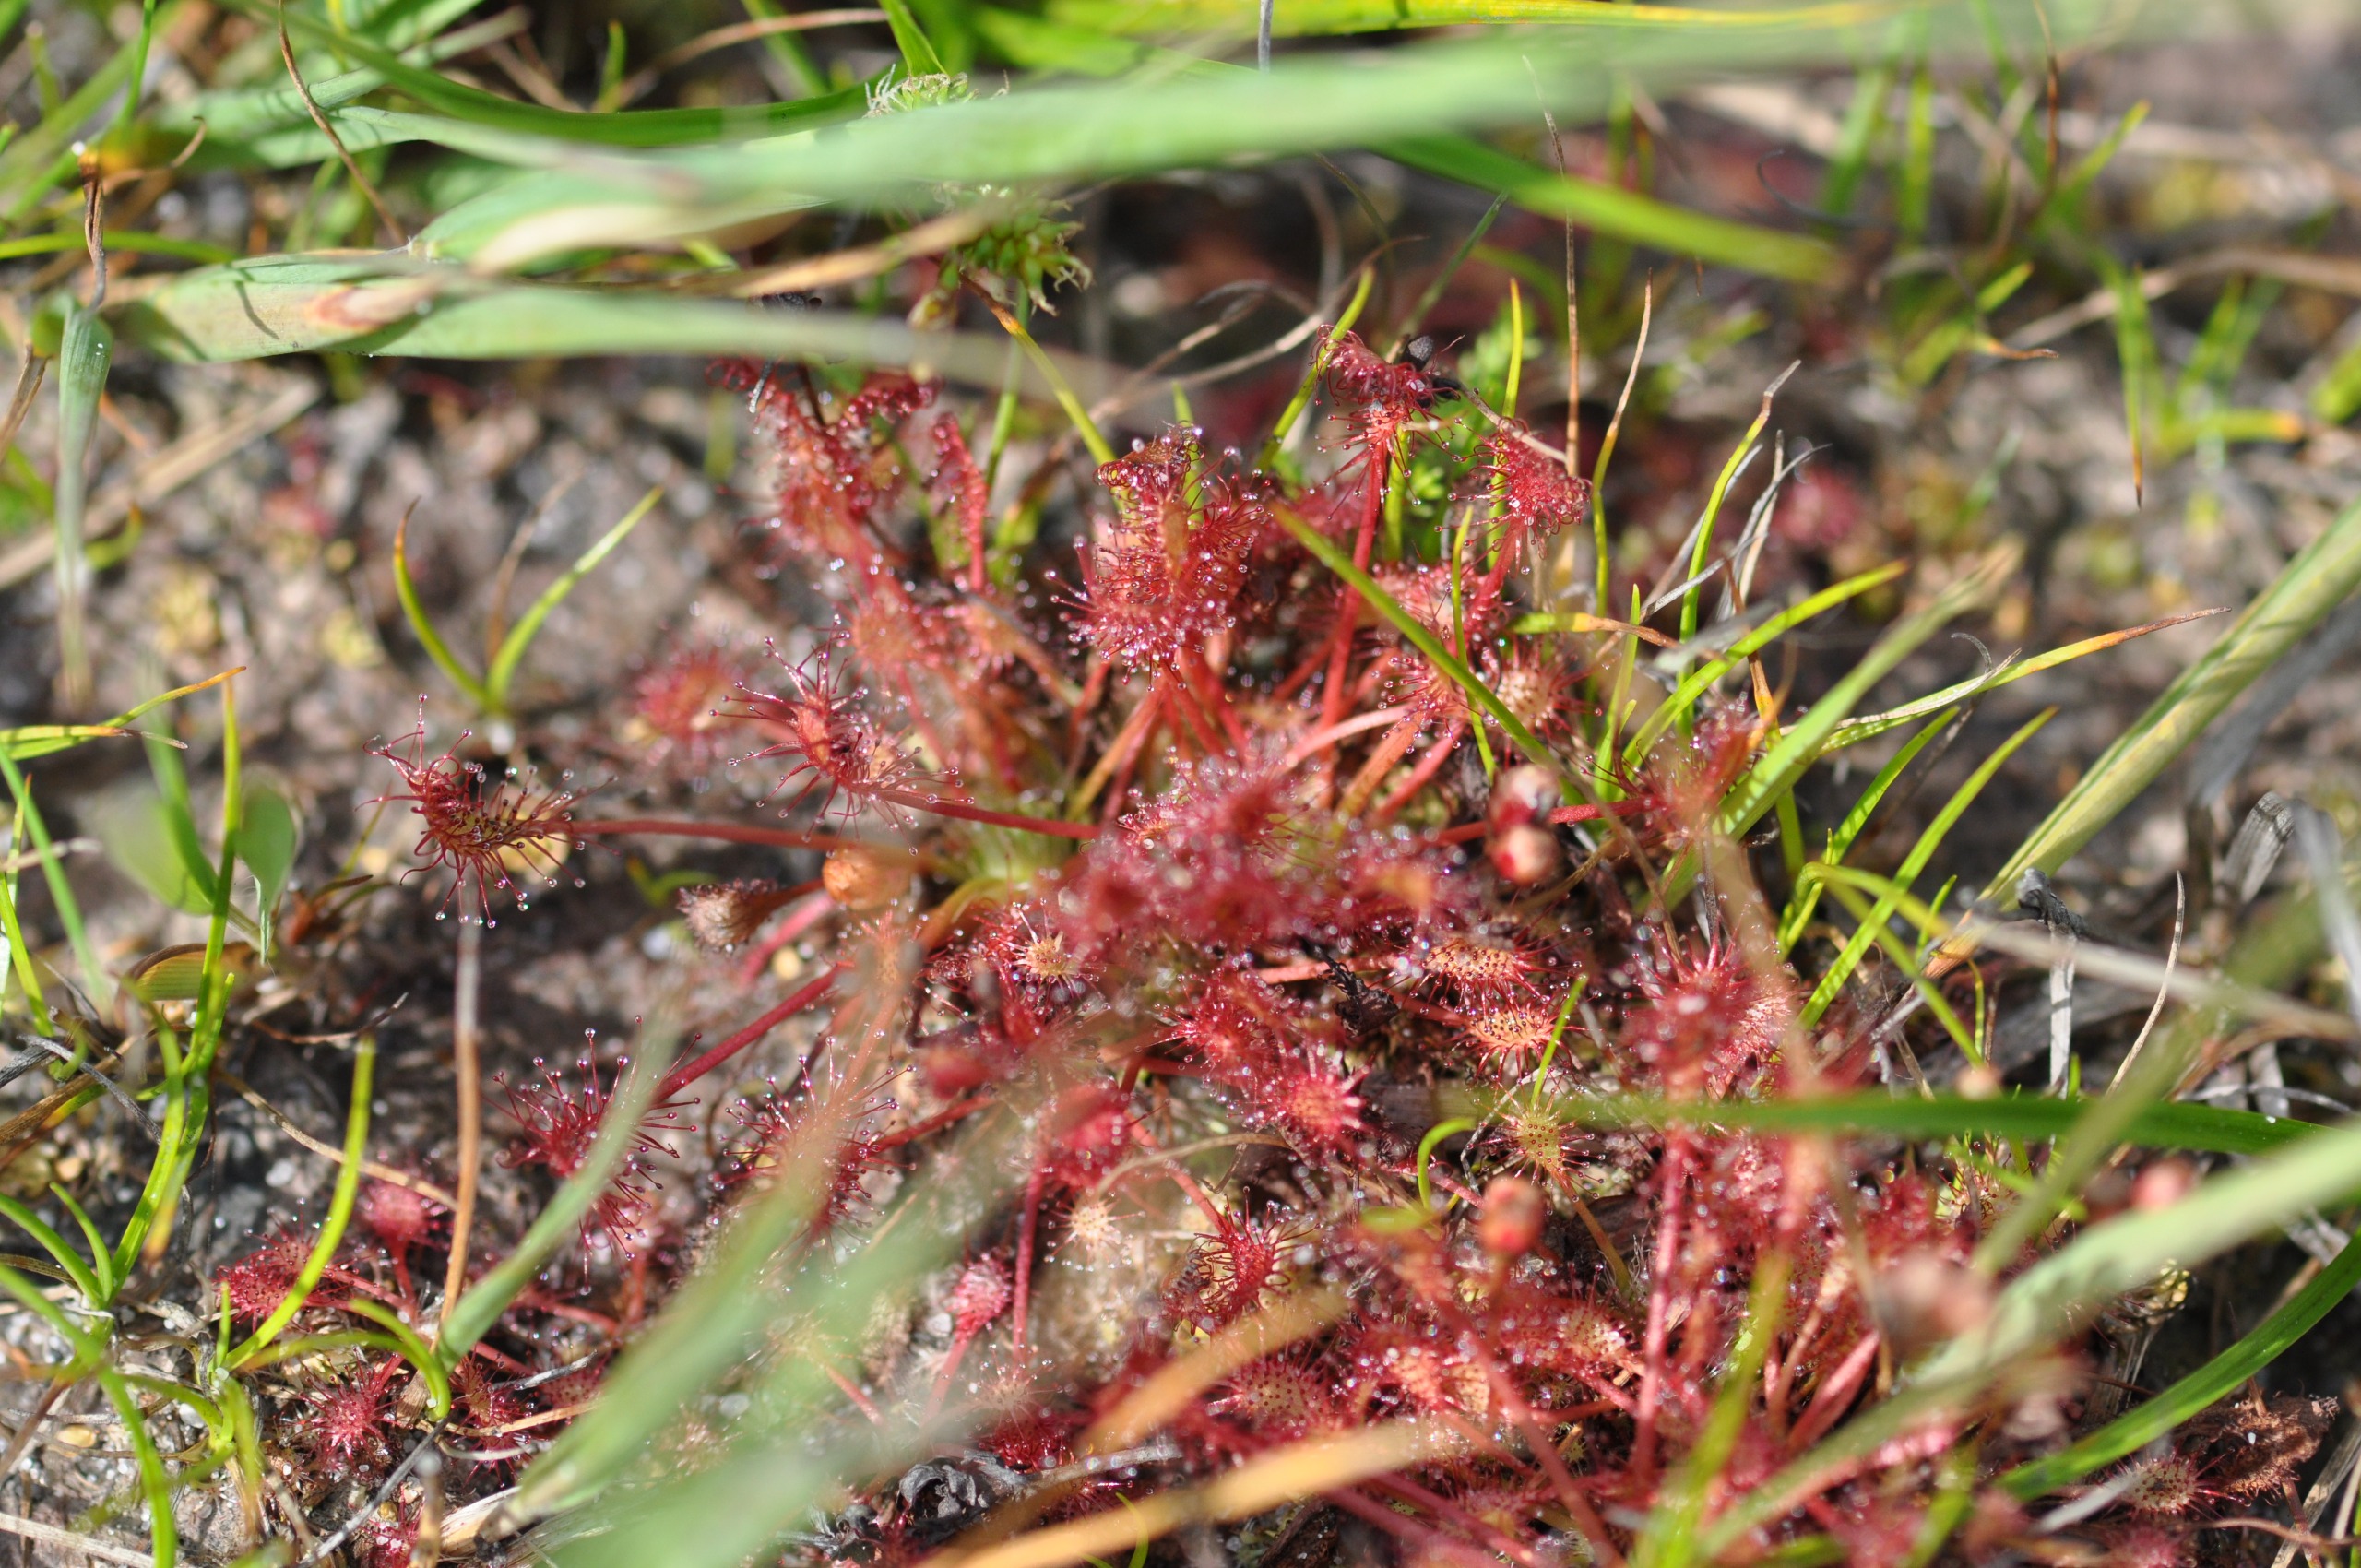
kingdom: Plantae
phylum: Tracheophyta
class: Magnoliopsida
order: Caryophyllales
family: Droseraceae
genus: Drosera
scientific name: Drosera intermedia
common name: Liden soldug
